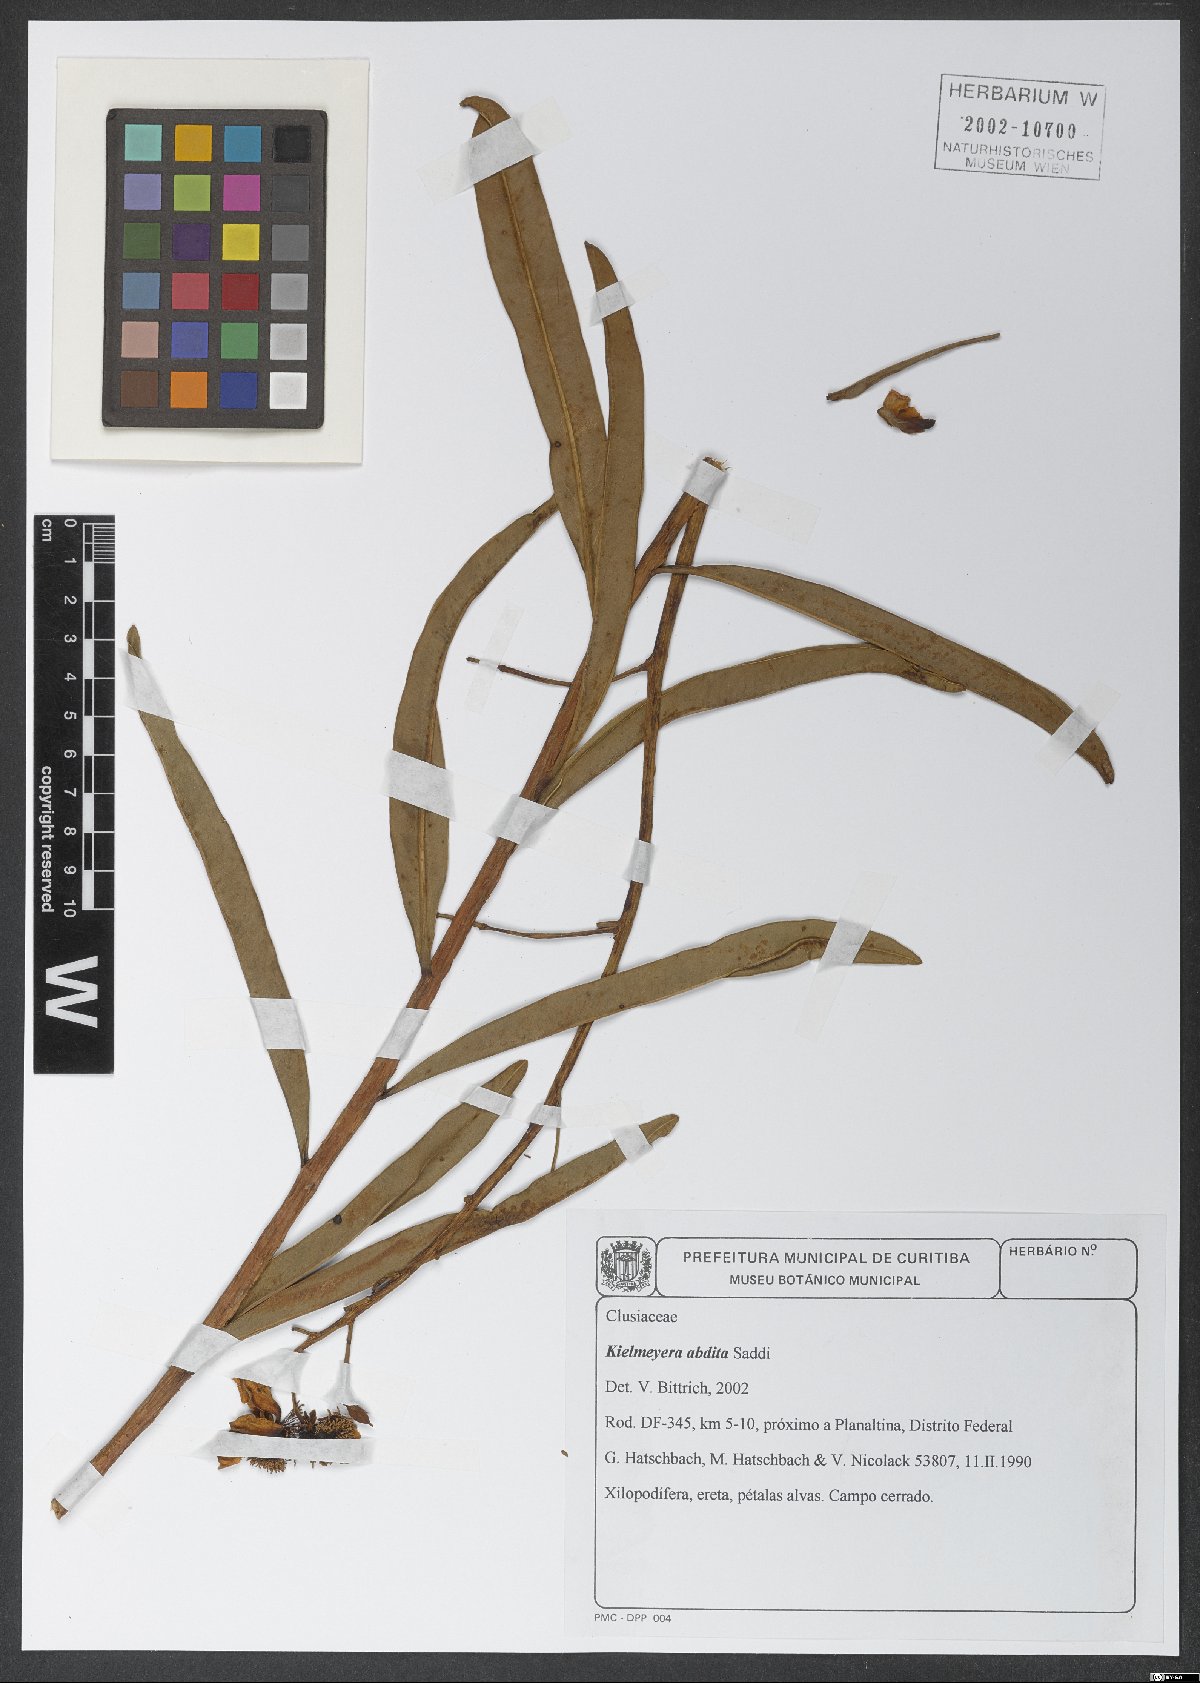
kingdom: Plantae
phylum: Tracheophyta
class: Magnoliopsida
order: Malpighiales
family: Calophyllaceae
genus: Kielmeyera
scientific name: Kielmeyera abdita
